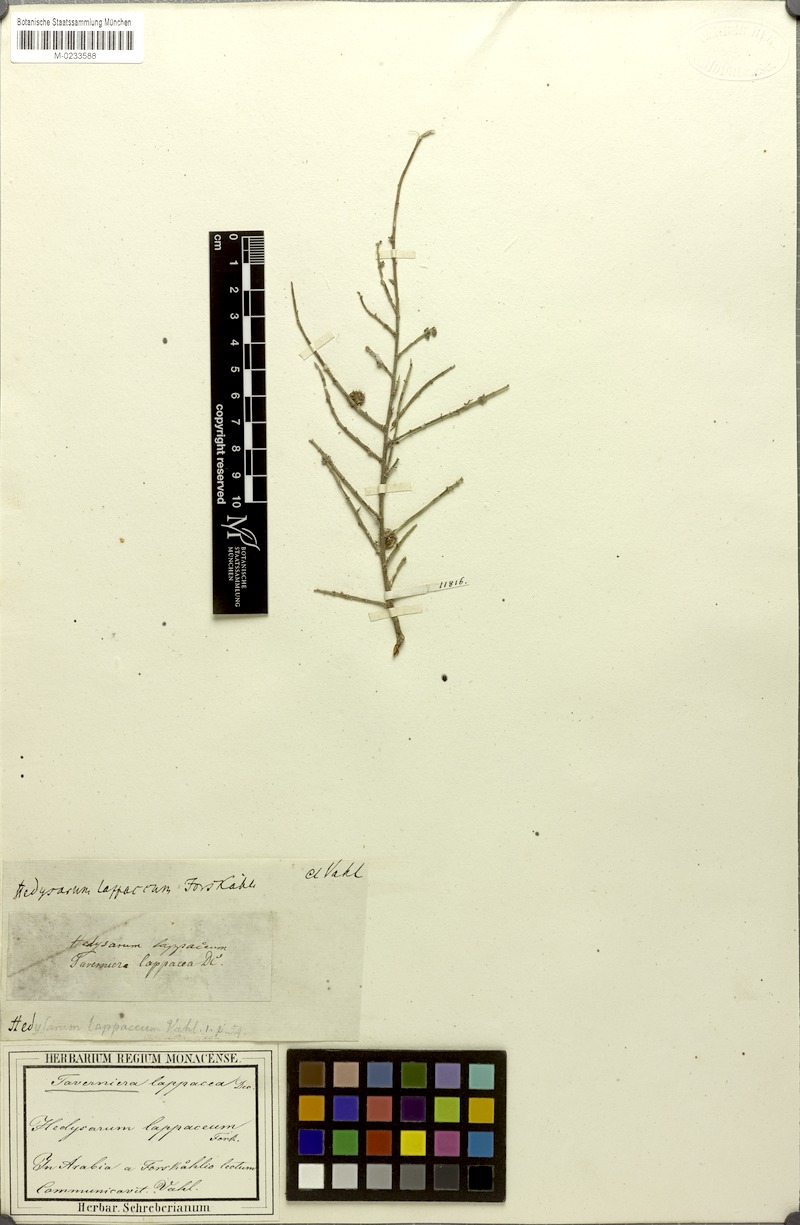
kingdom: Plantae
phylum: Tracheophyta
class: Magnoliopsida
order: Fabales
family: Fabaceae
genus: Taverniera
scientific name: Taverniera lappacea
